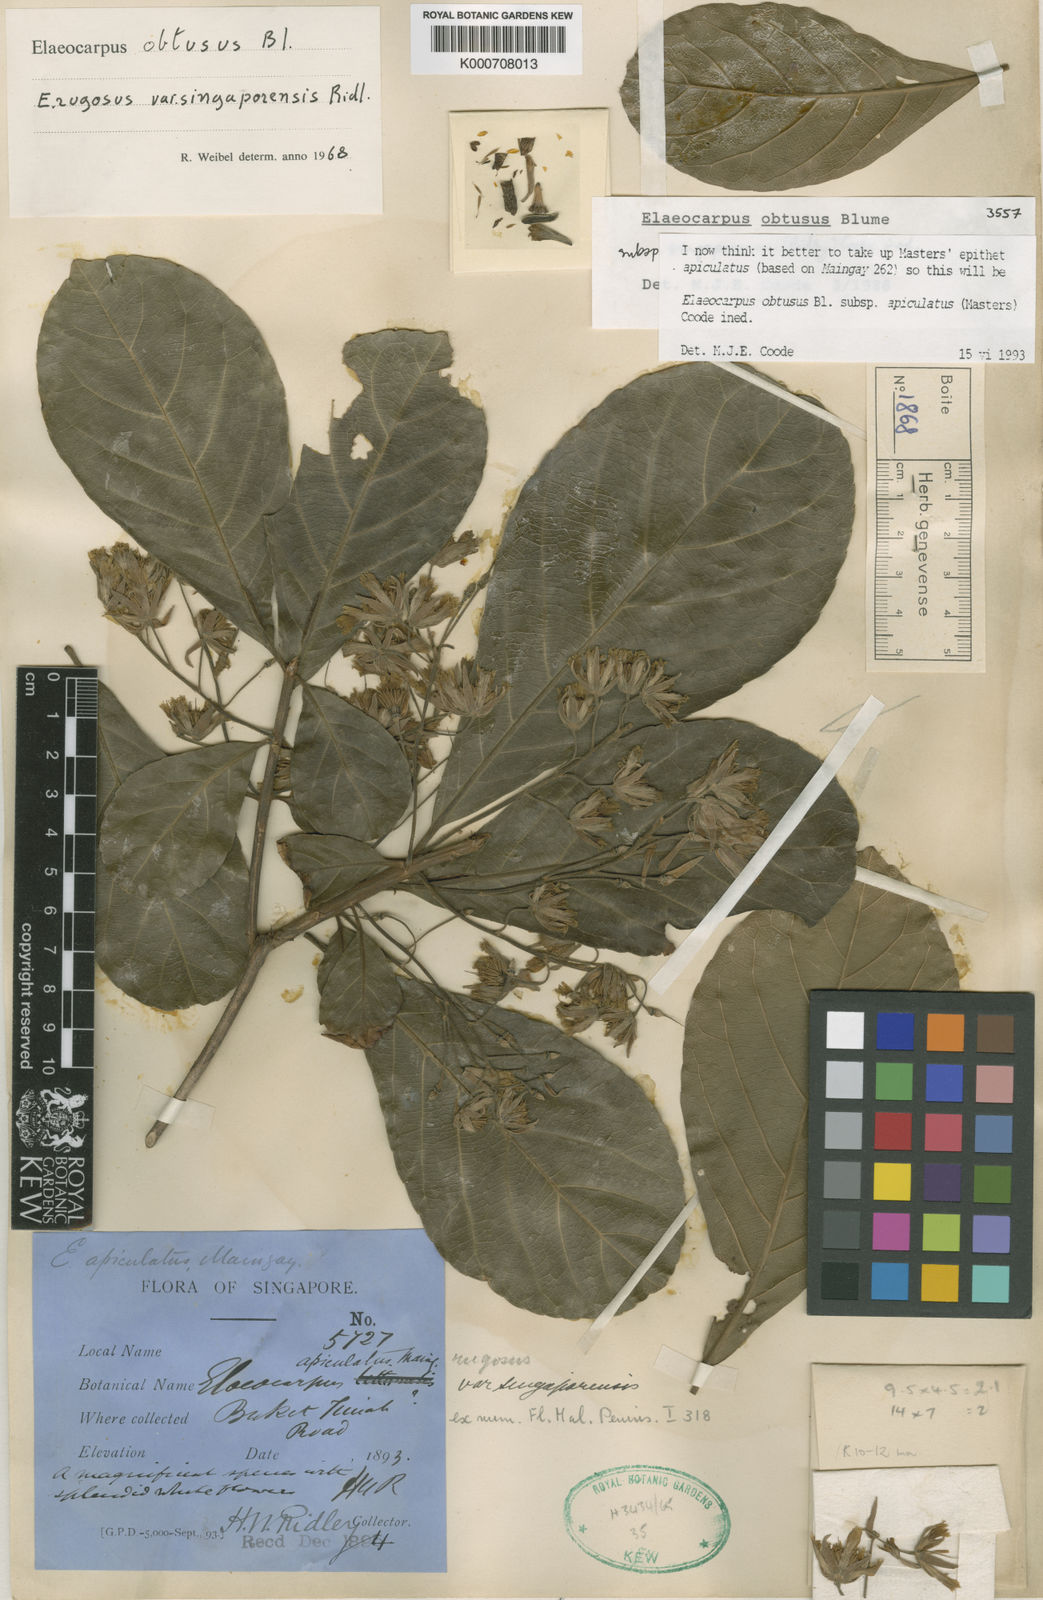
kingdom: Plantae
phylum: Tracheophyta
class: Magnoliopsida
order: Oxalidales
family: Elaeocarpaceae
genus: Elaeocarpus
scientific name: Elaeocarpus obtusus
